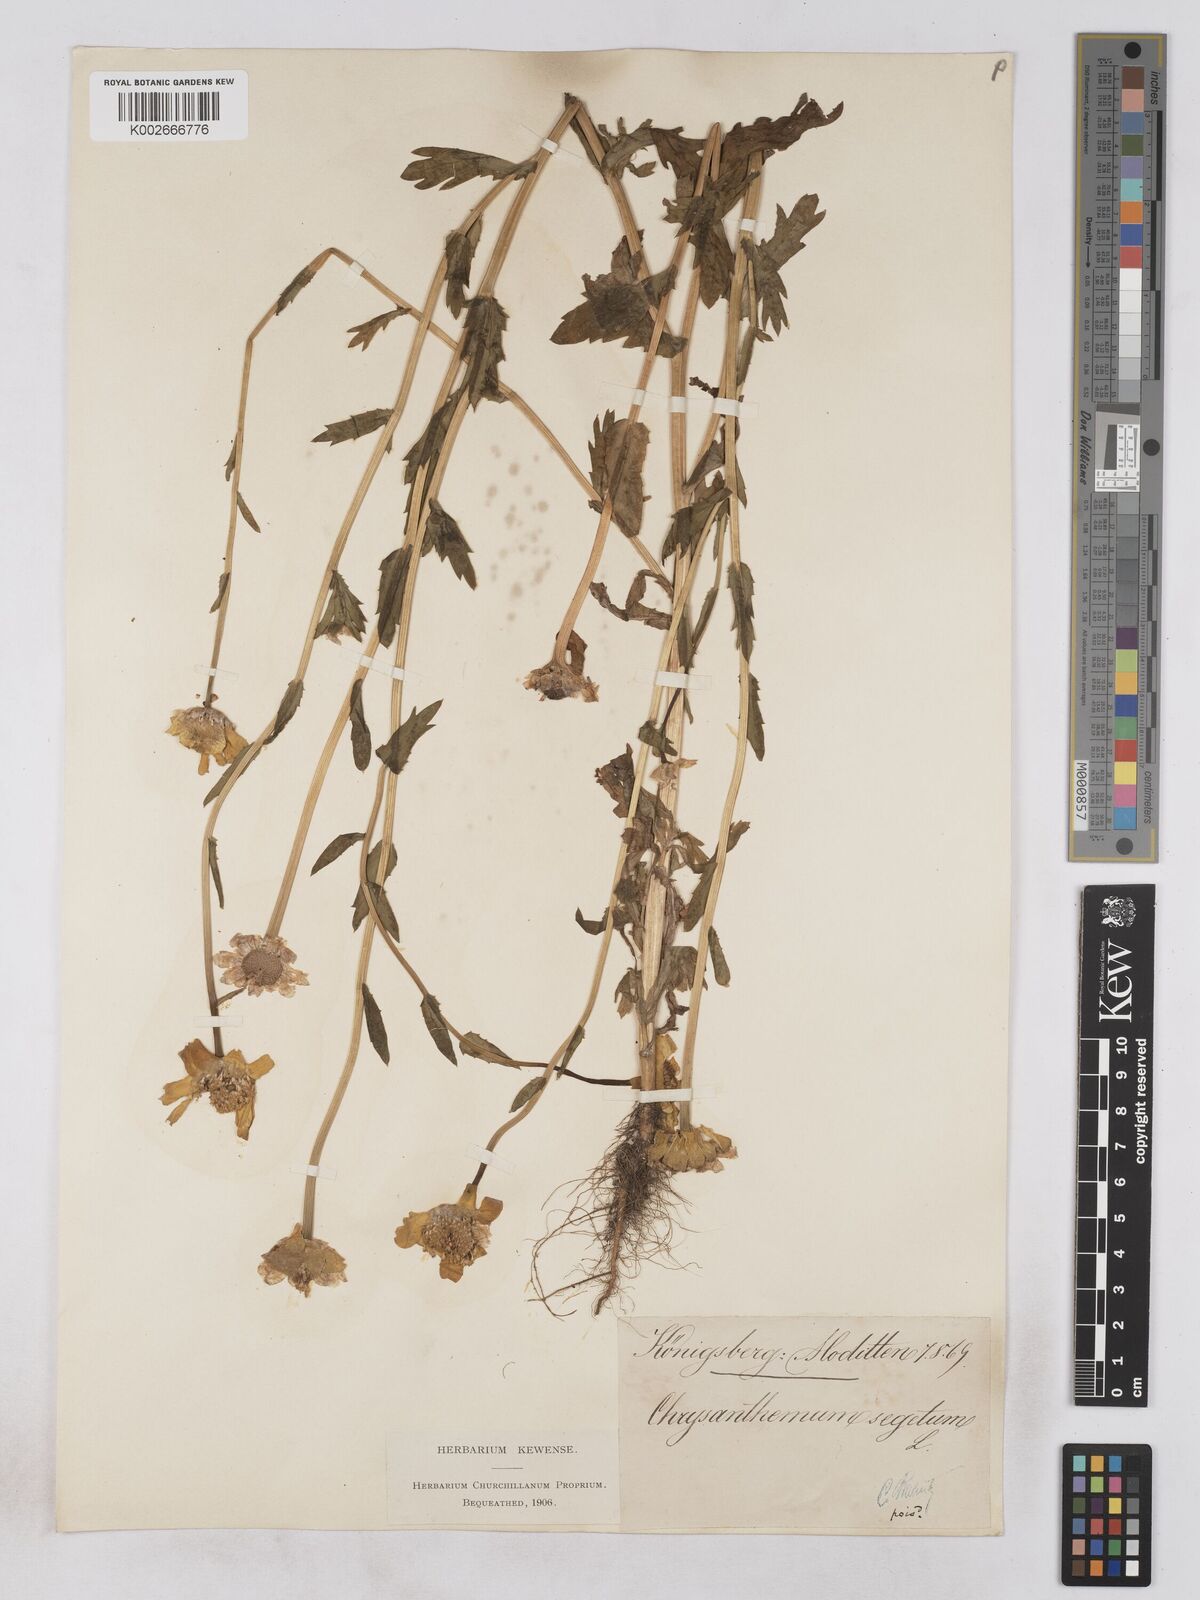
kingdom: Plantae
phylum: Tracheophyta
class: Magnoliopsida
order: Asterales
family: Asteraceae
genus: Glebionis
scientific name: Glebionis segetum
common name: Corndaisy
